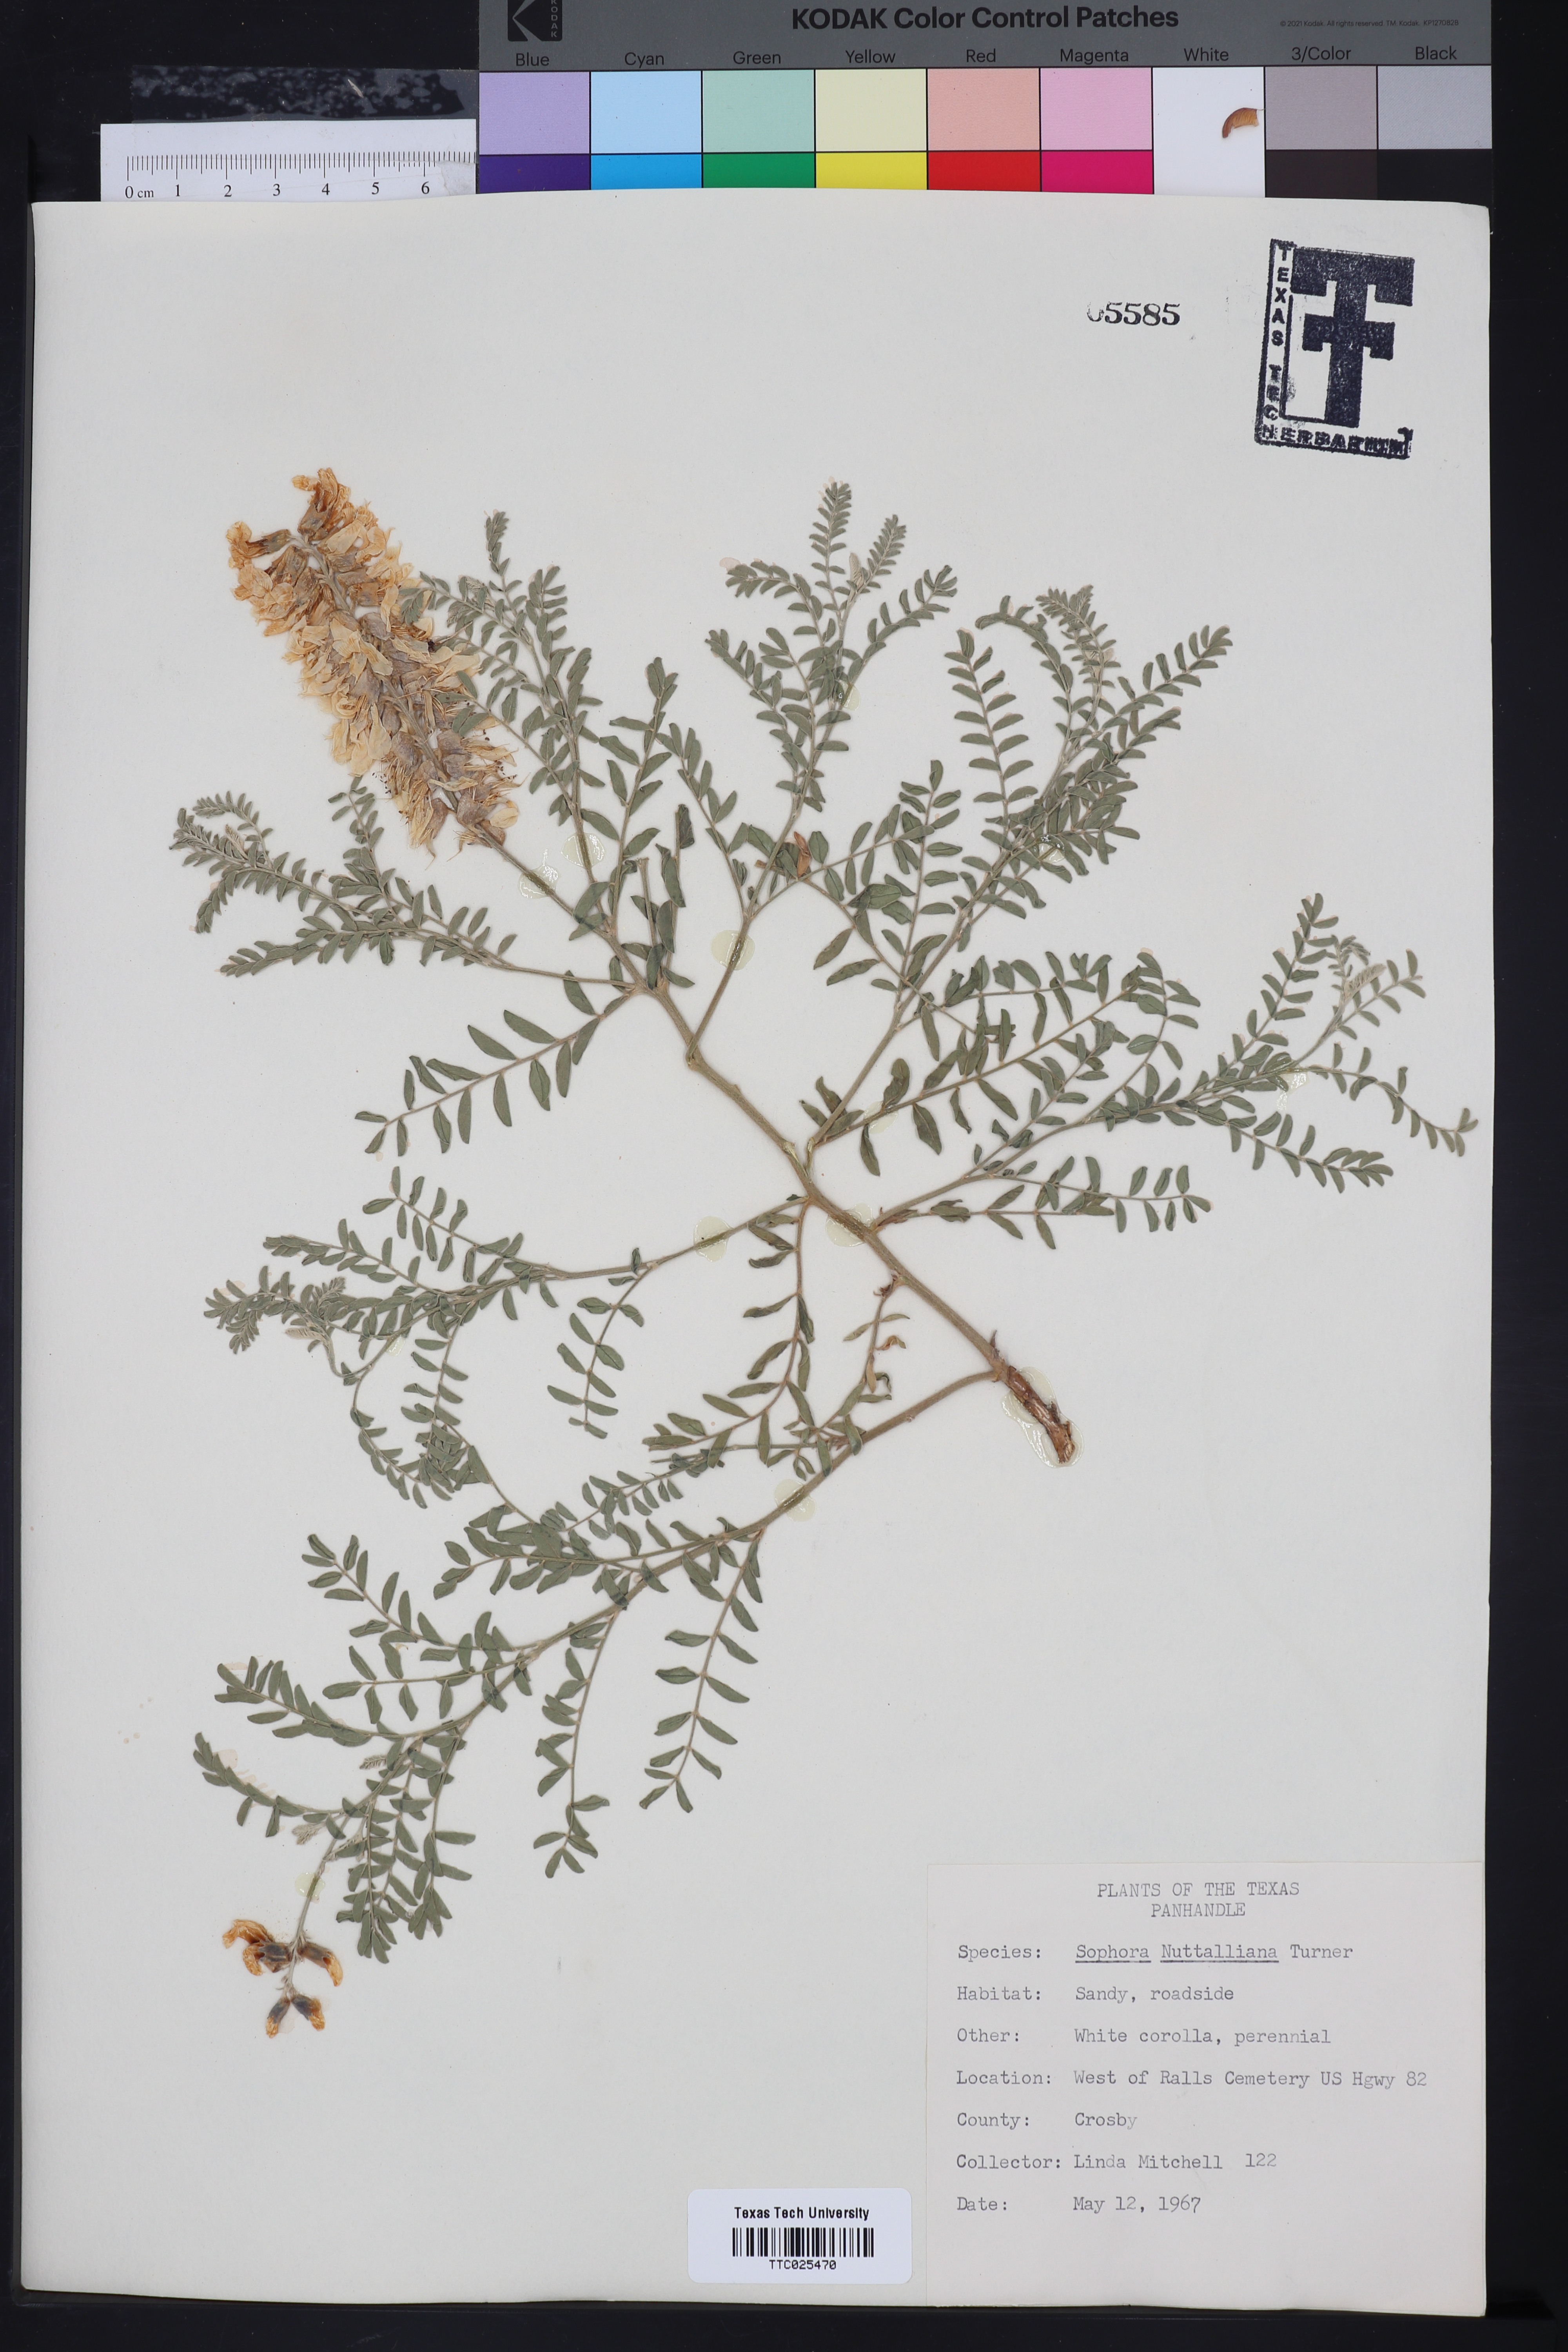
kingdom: Plantae
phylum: Tracheophyta
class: Magnoliopsida
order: Fabales
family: Fabaceae
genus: Sophora
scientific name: Sophora nuttalliana
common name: Silky sophora
